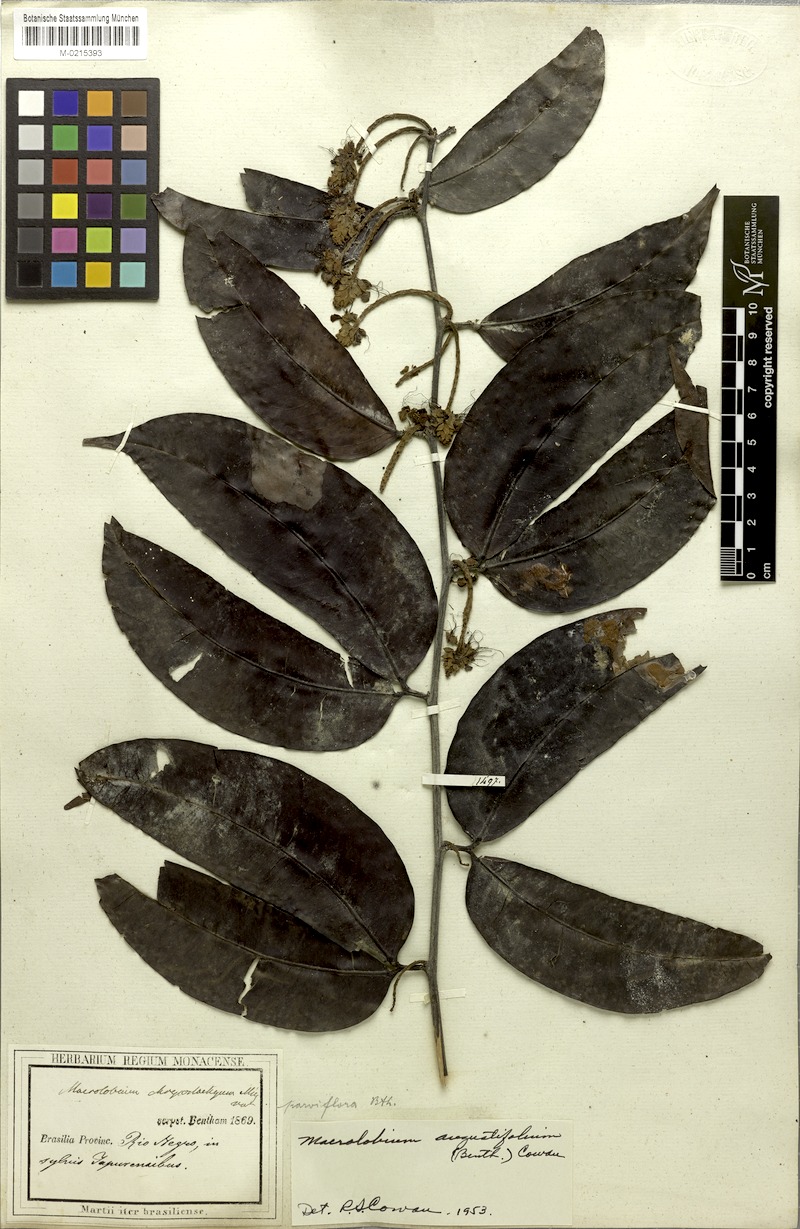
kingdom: Plantae
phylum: Tracheophyta
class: Magnoliopsida
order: Fabales
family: Fabaceae
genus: Macrolobium
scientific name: Macrolobium angustifolium
